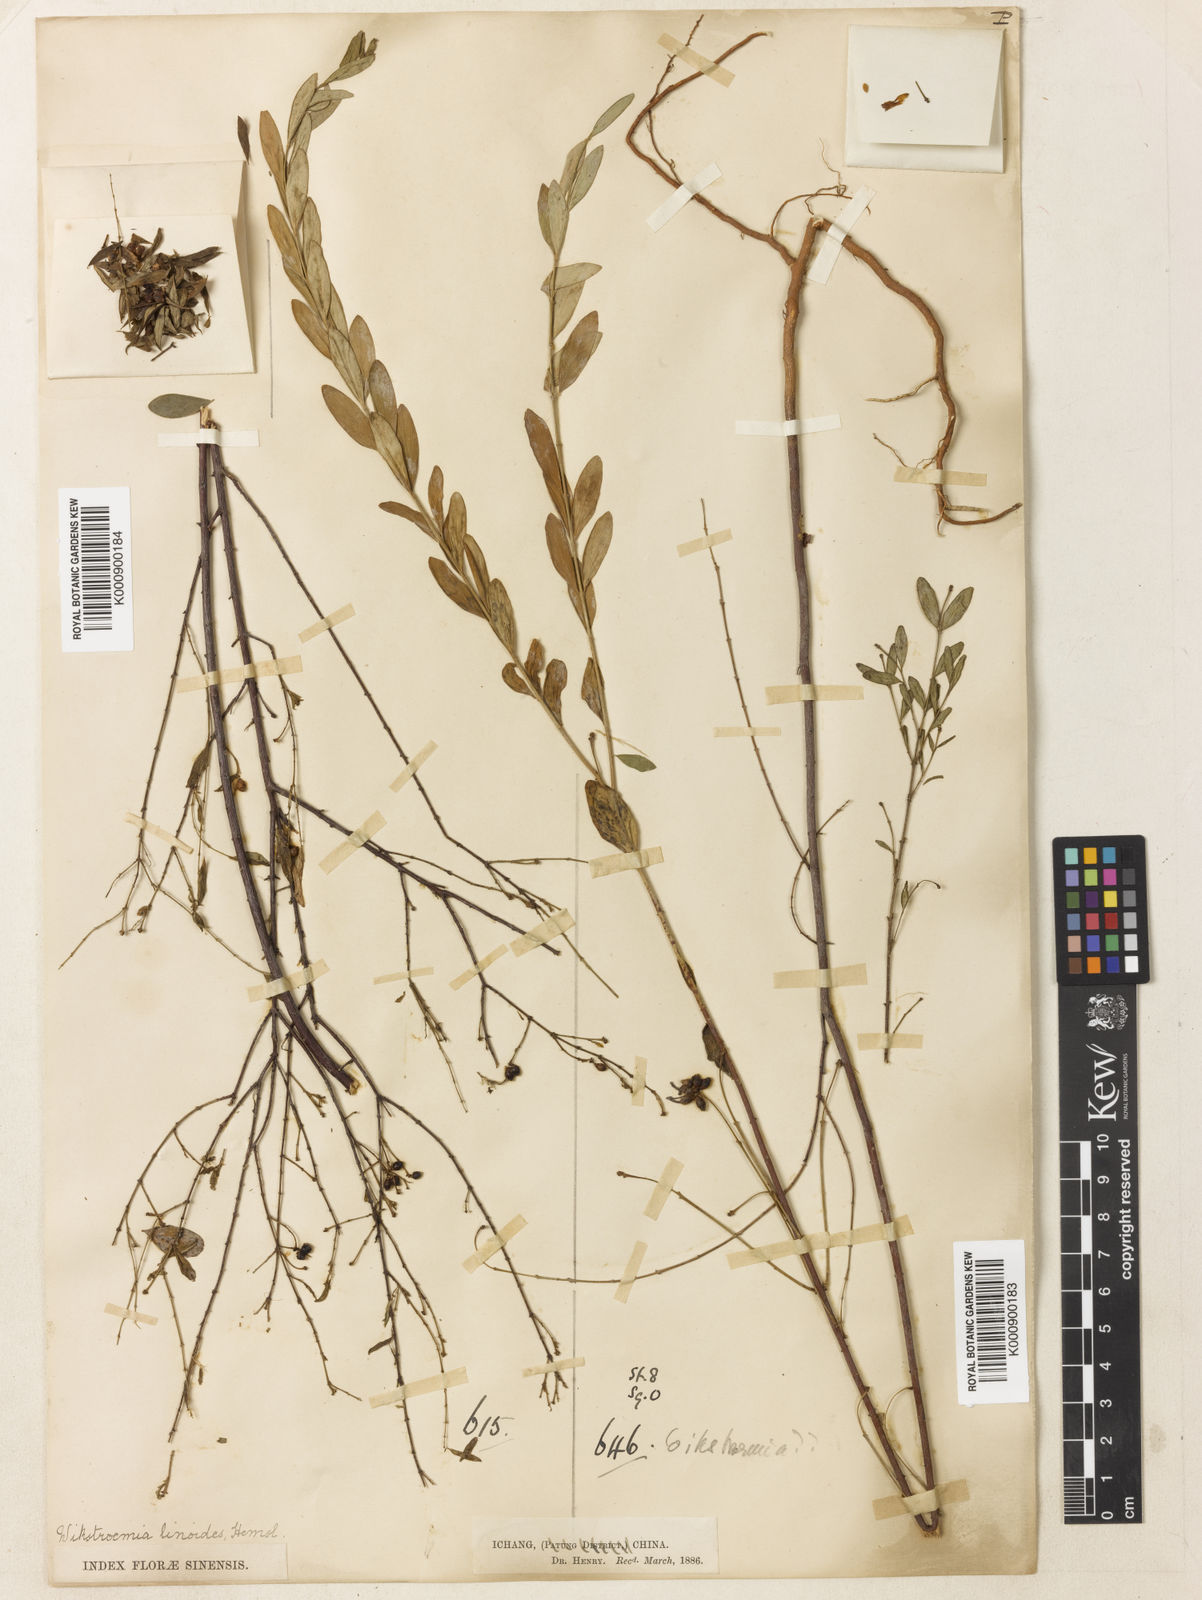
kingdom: Plantae
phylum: Tracheophyta
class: Magnoliopsida
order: Malvales
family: Thymelaeaceae
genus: Wikstroemia
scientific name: Wikstroemia linoides
